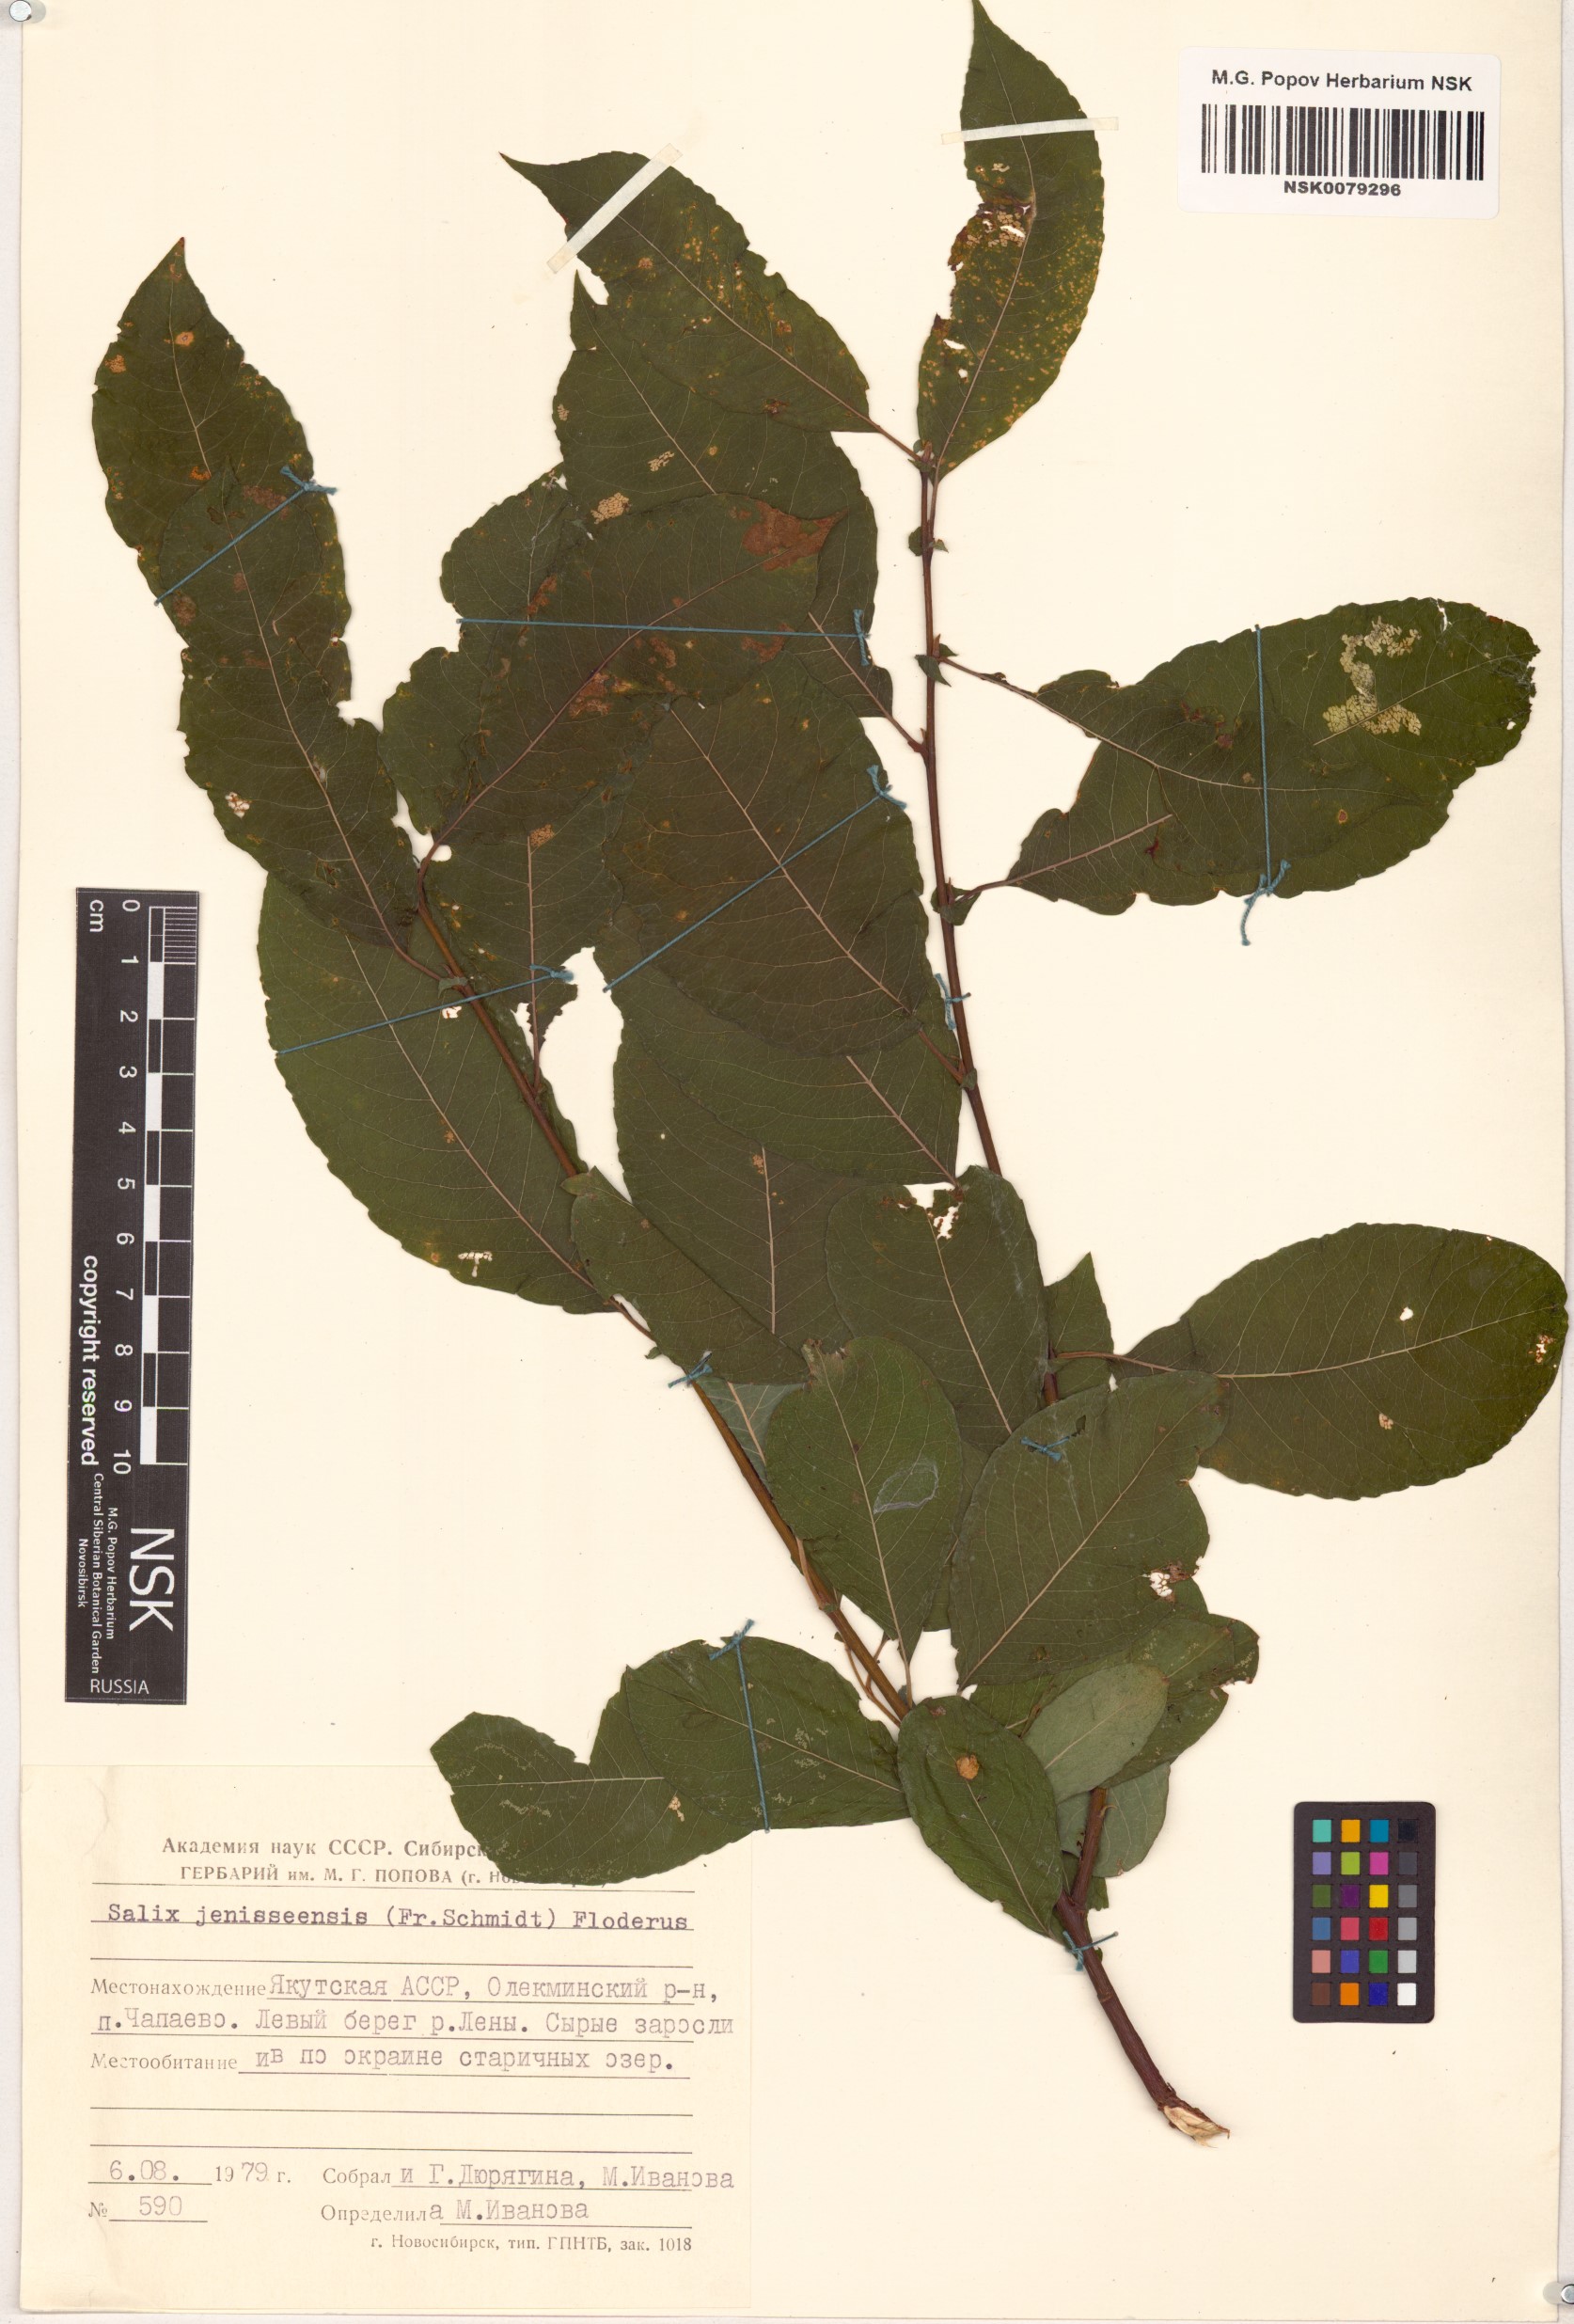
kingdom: Plantae
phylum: Tracheophyta
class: Magnoliopsida
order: Malpighiales
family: Salicaceae
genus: Salix
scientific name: Salix jenisseensis
